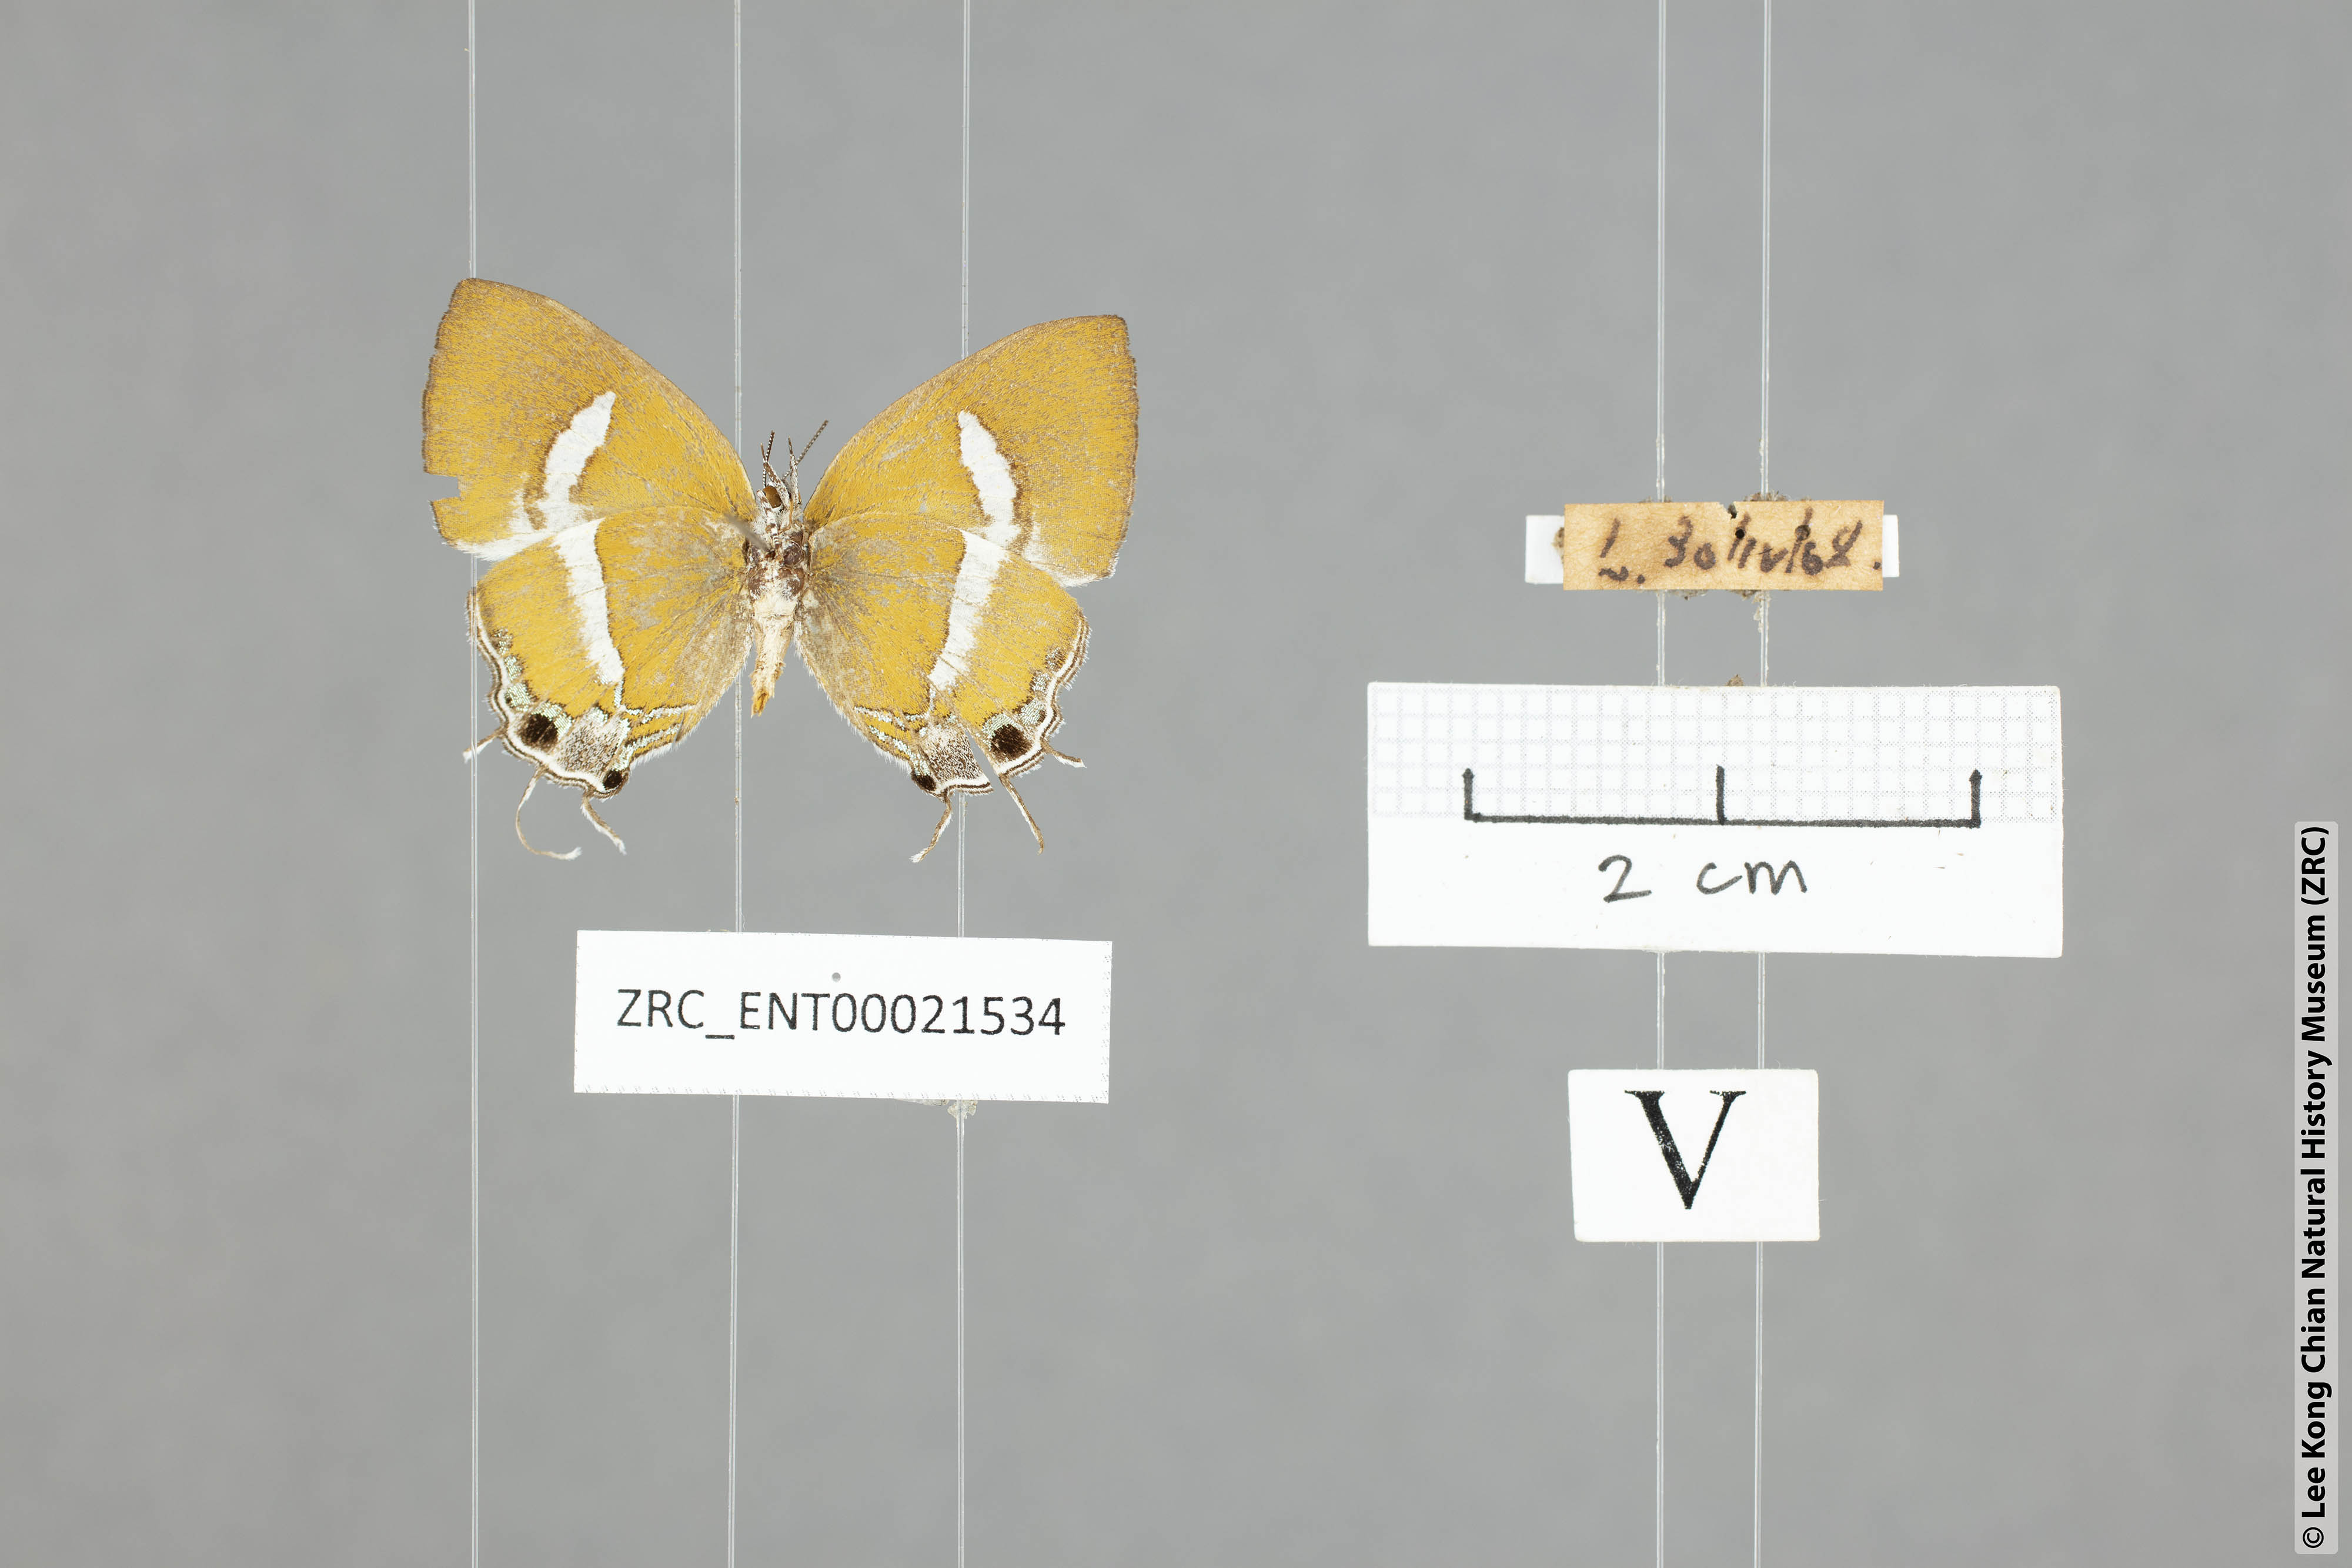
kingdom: Animalia
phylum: Arthropoda
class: Insecta
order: Lepidoptera
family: Lycaenidae
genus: Horaga
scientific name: Horaga syrinx
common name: Ambon onyx
